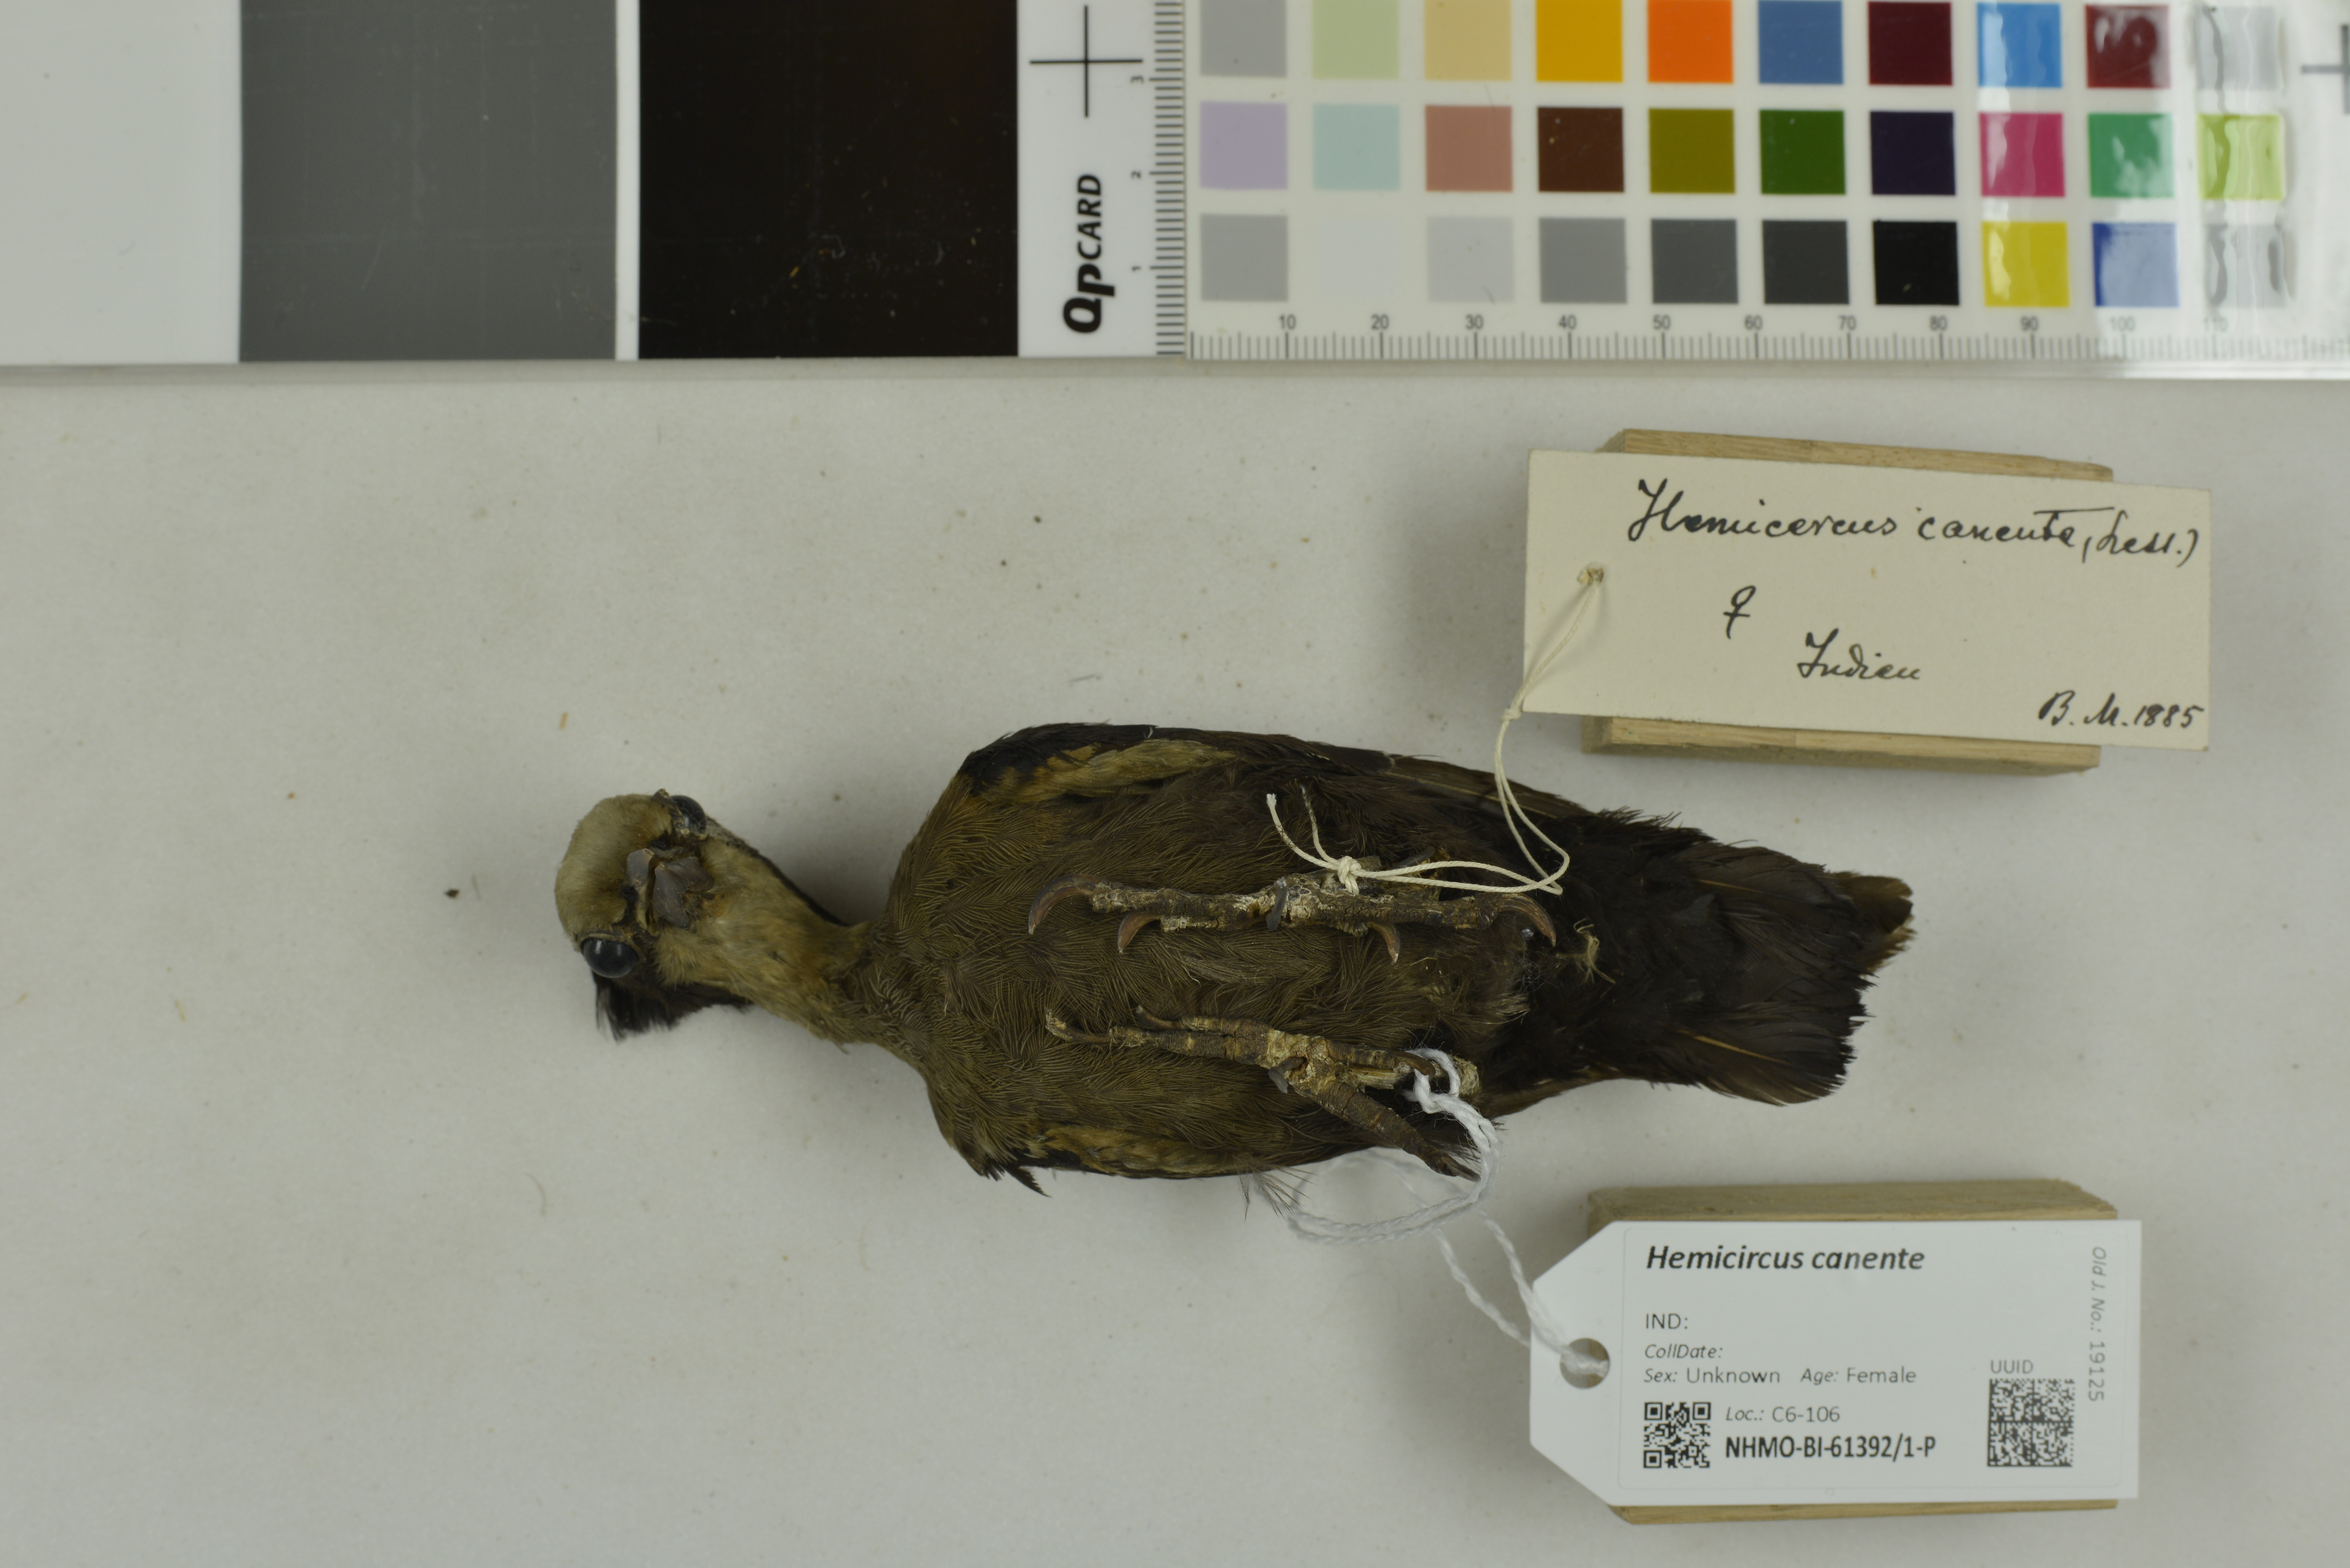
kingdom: Animalia
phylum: Chordata
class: Aves
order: Piciformes
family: Picidae
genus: Hemicircus
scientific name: Hemicircus canente
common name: Heart-spotted woodpecker
